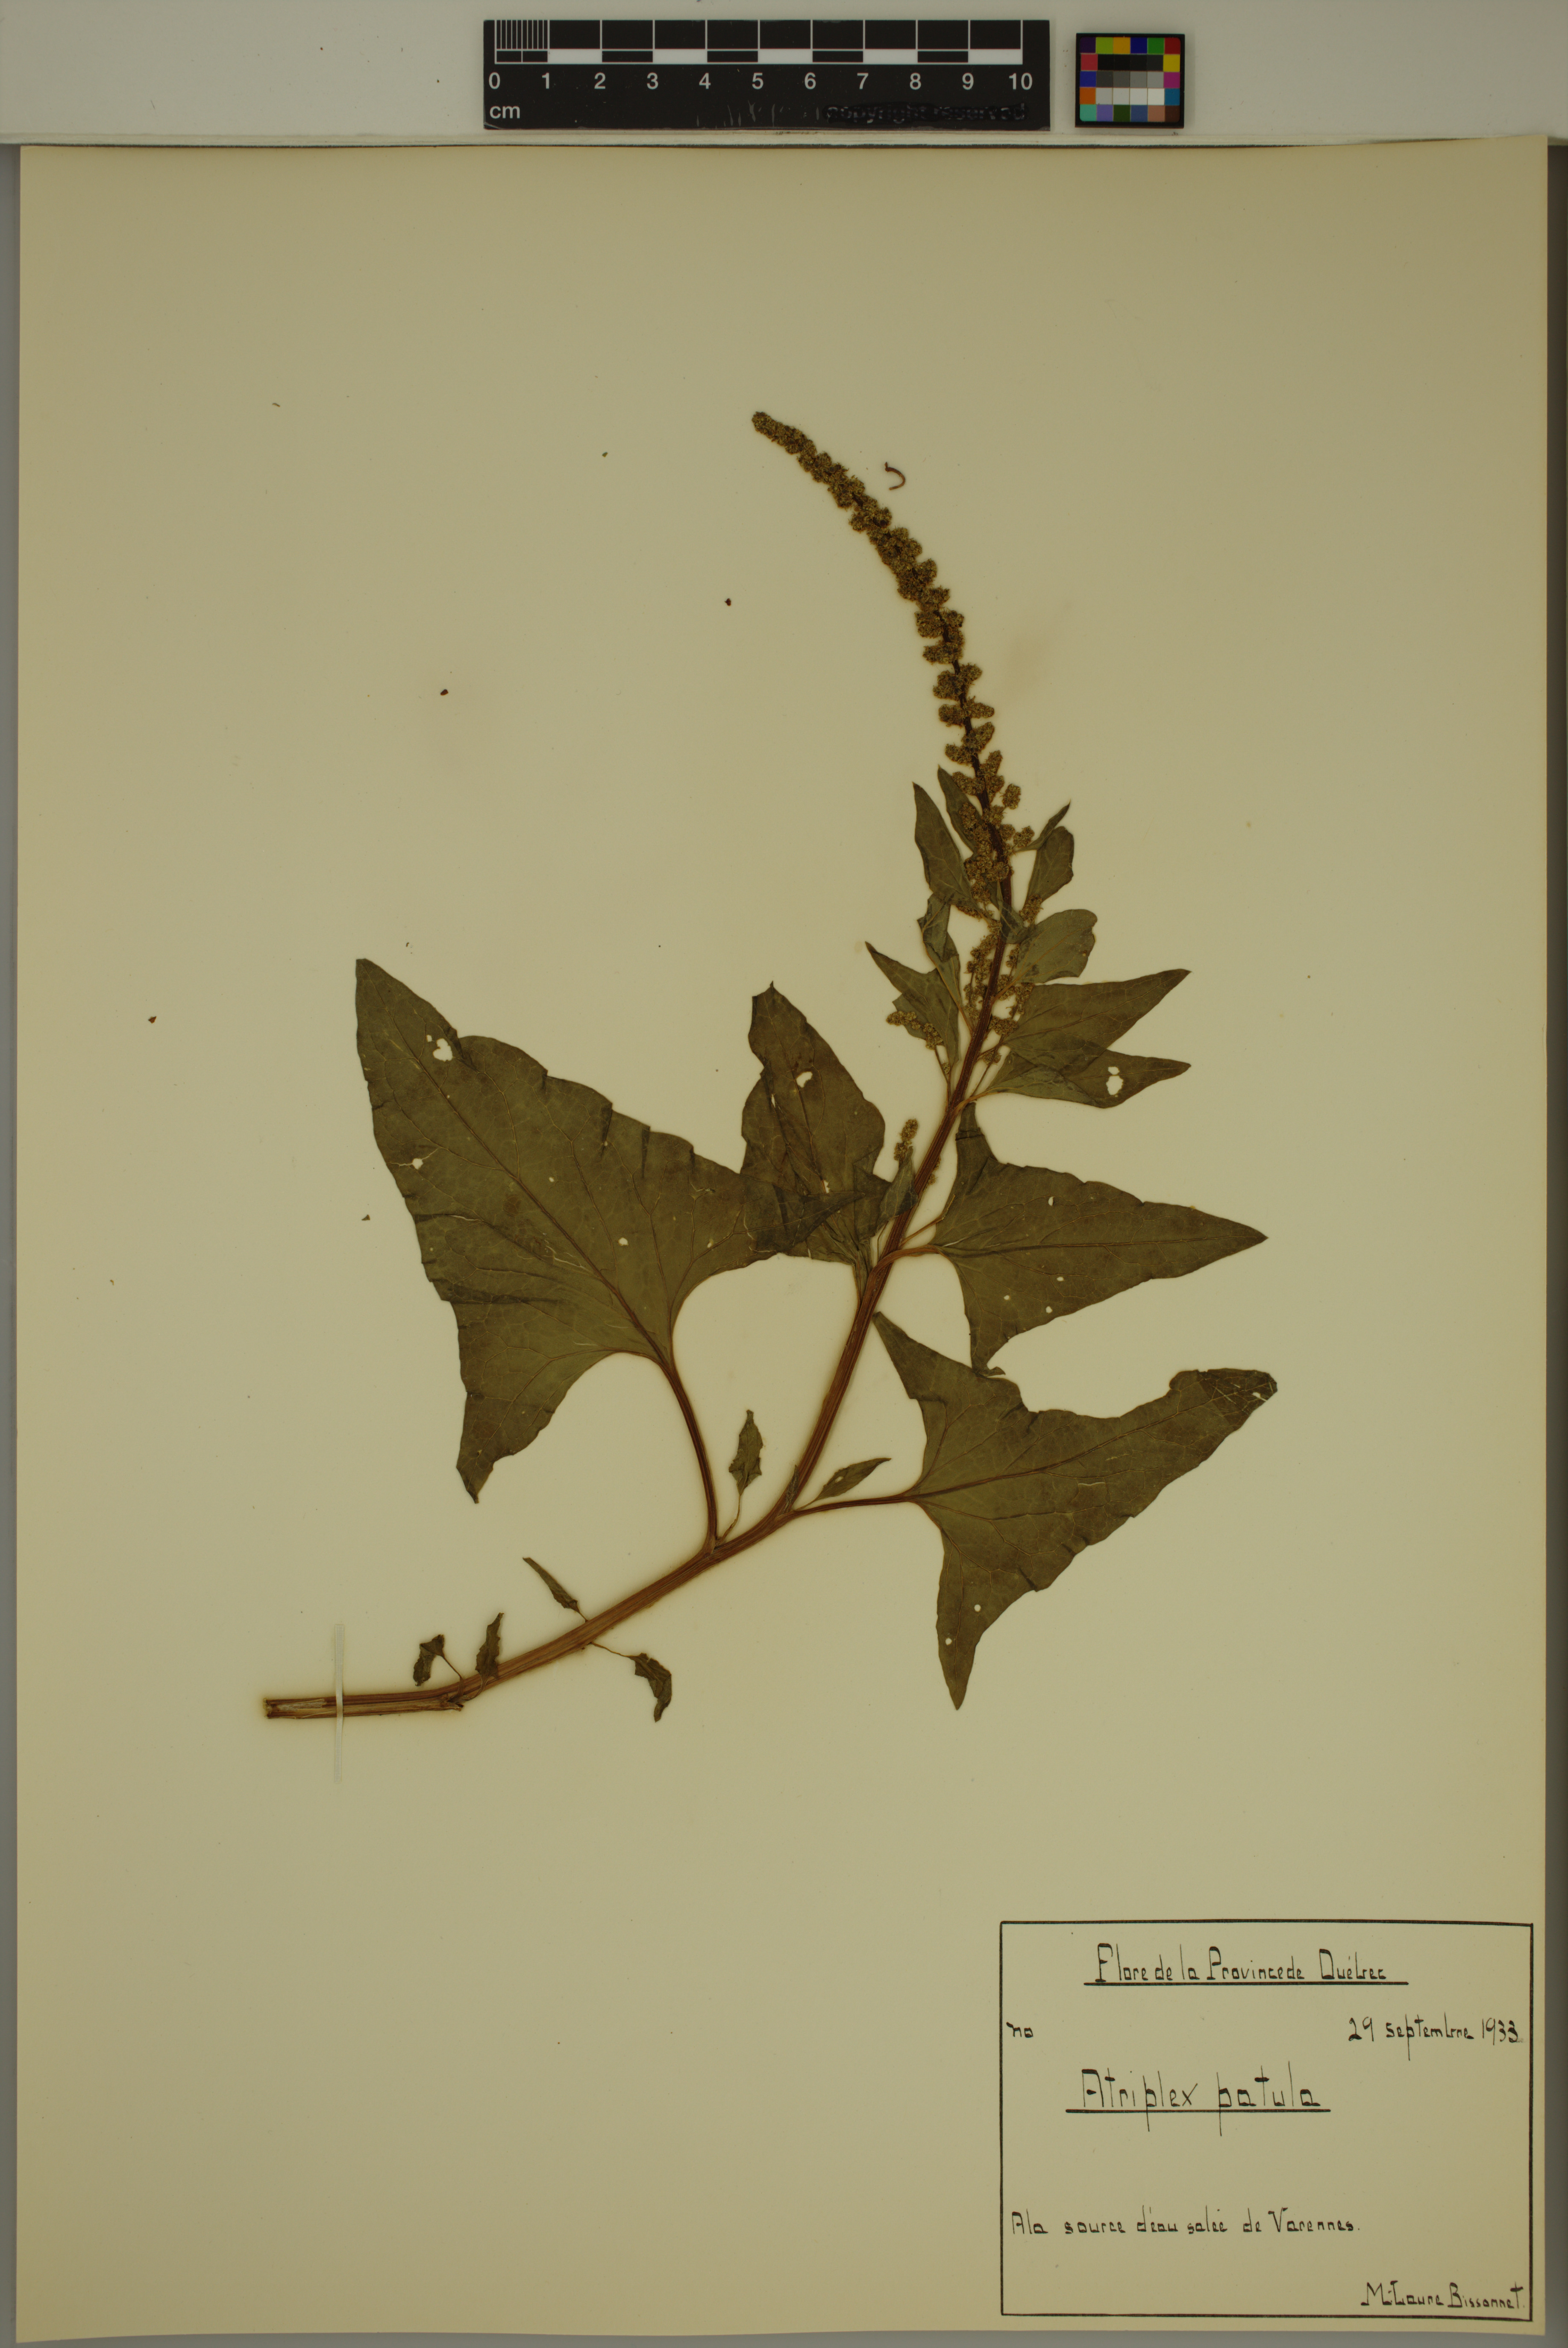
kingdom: Plantae
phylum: Tracheophyta
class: Magnoliopsida
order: Caryophyllales
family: Amaranthaceae
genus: Atriplex
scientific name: Atriplex patula
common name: Common orache
